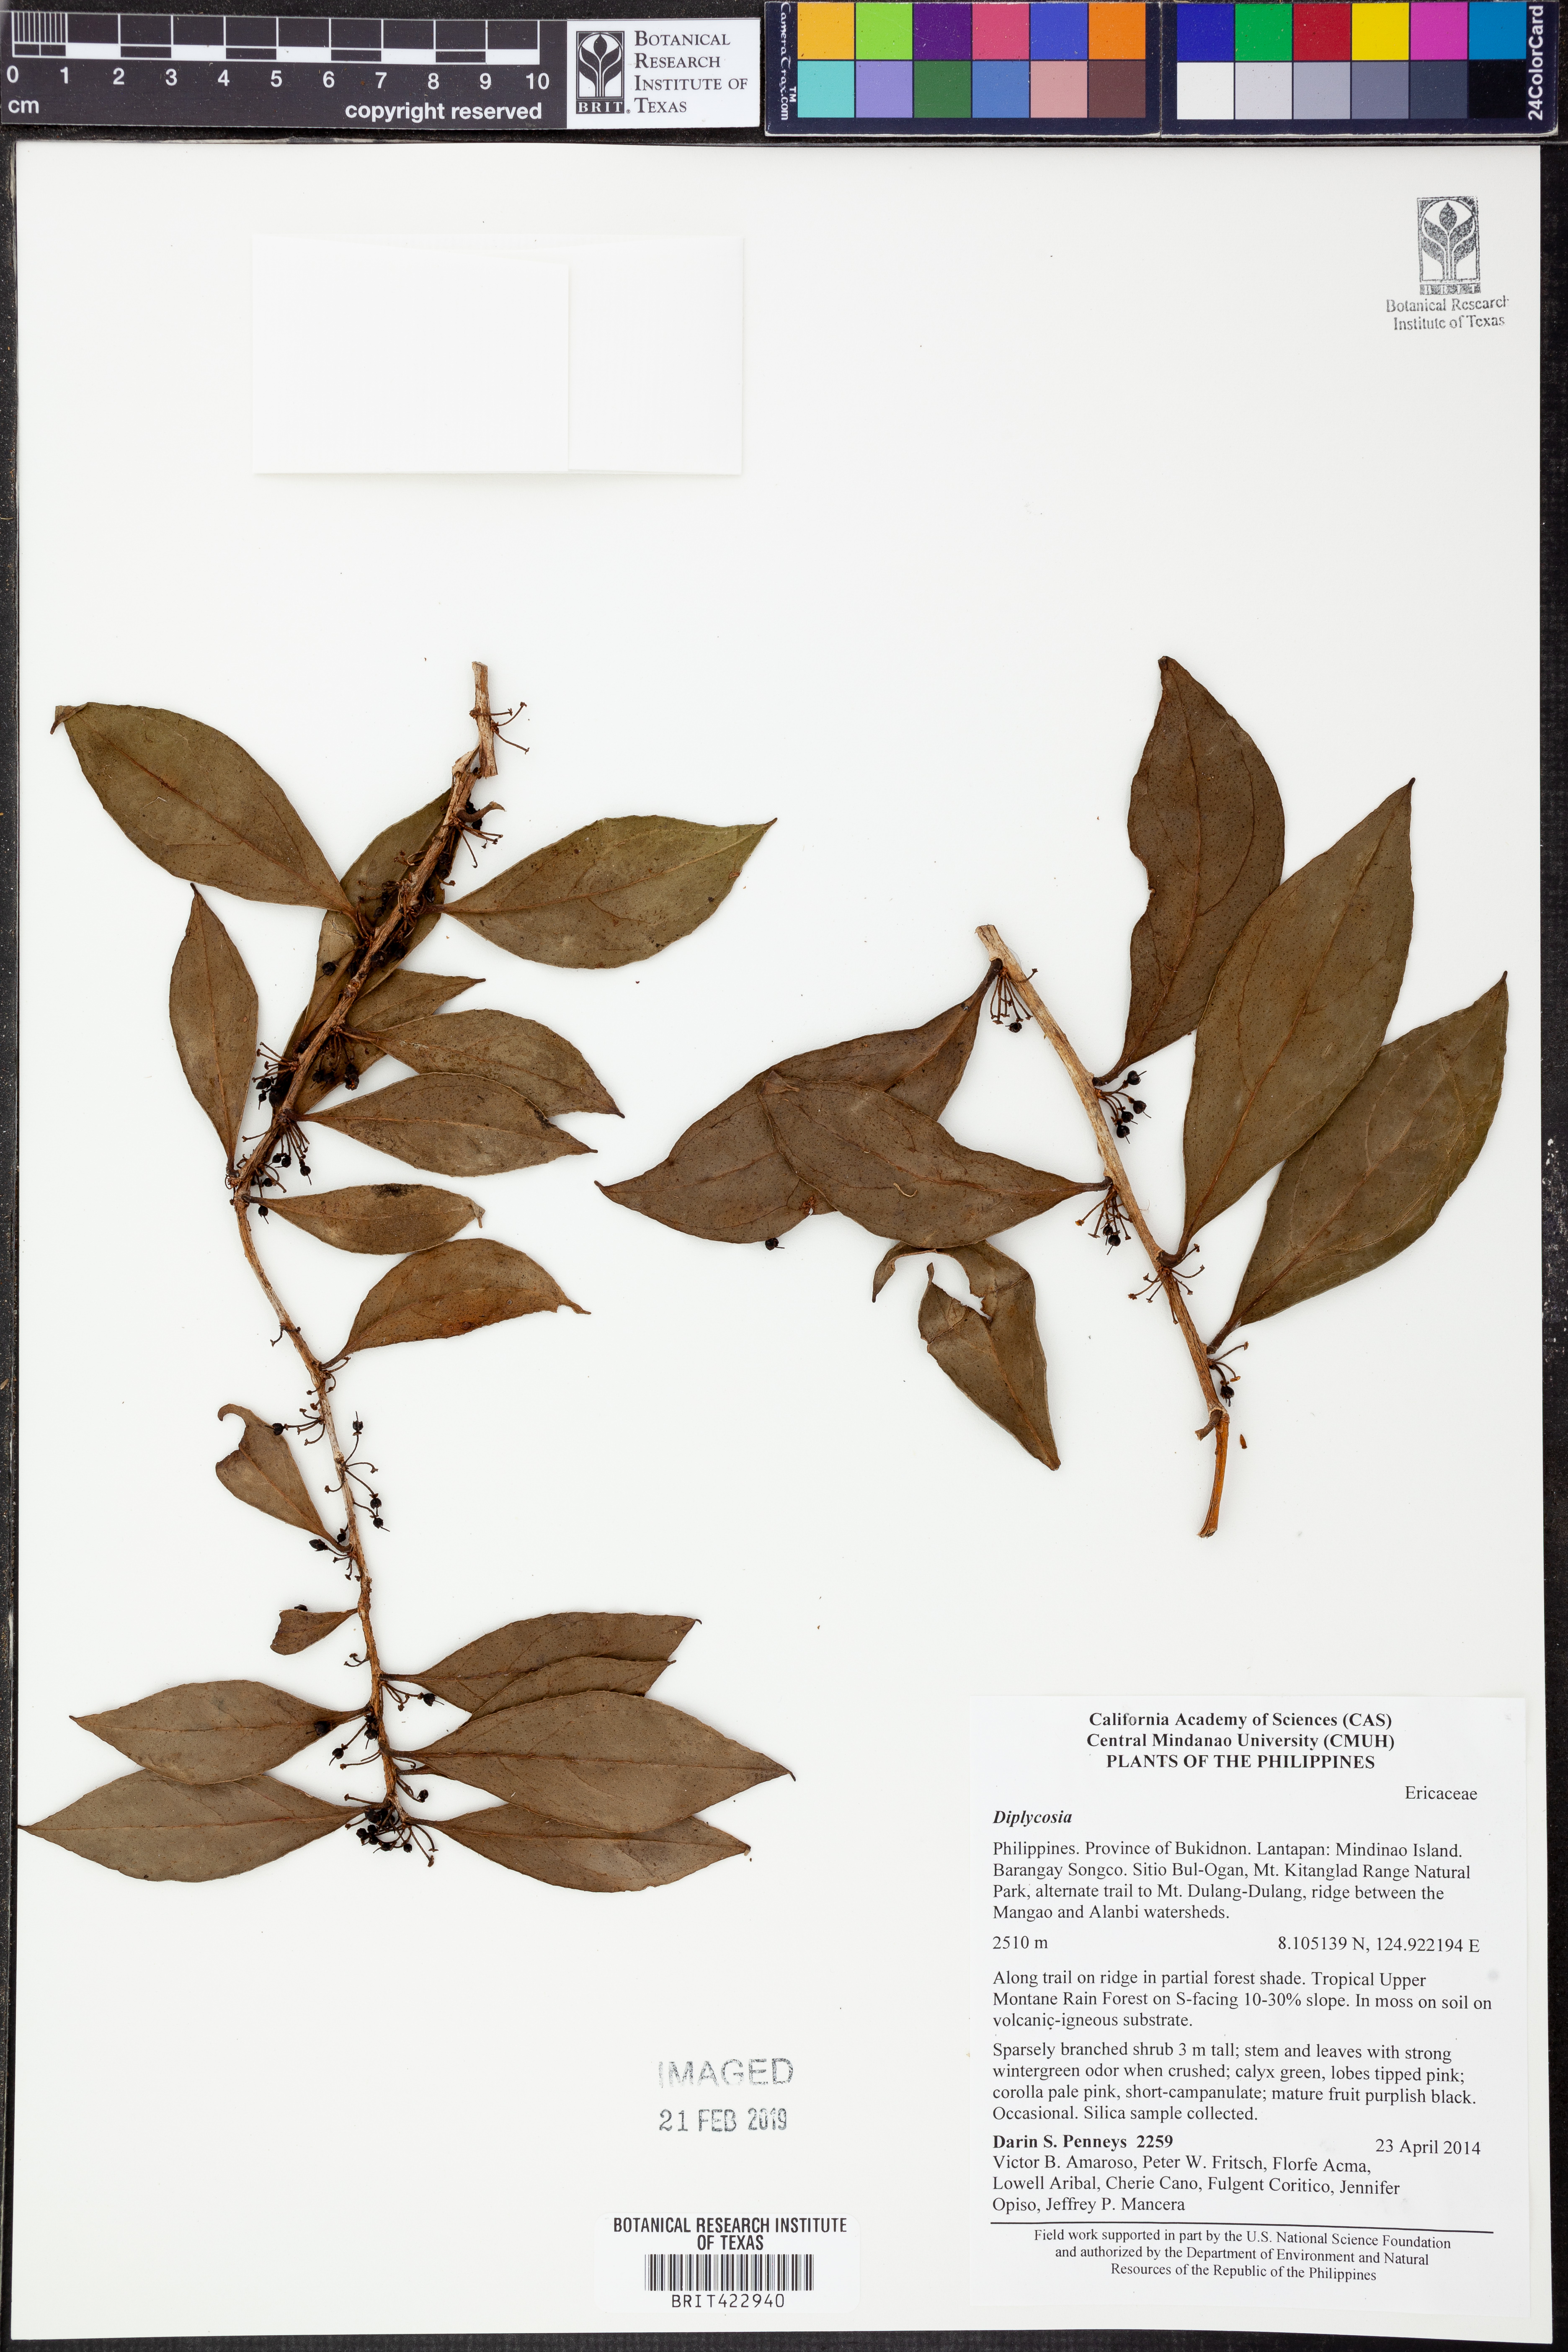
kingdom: Plantae
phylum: Tracheophyta
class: Magnoliopsida
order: Ericales
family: Ericaceae
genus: Gaultheria
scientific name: Gaultheria
